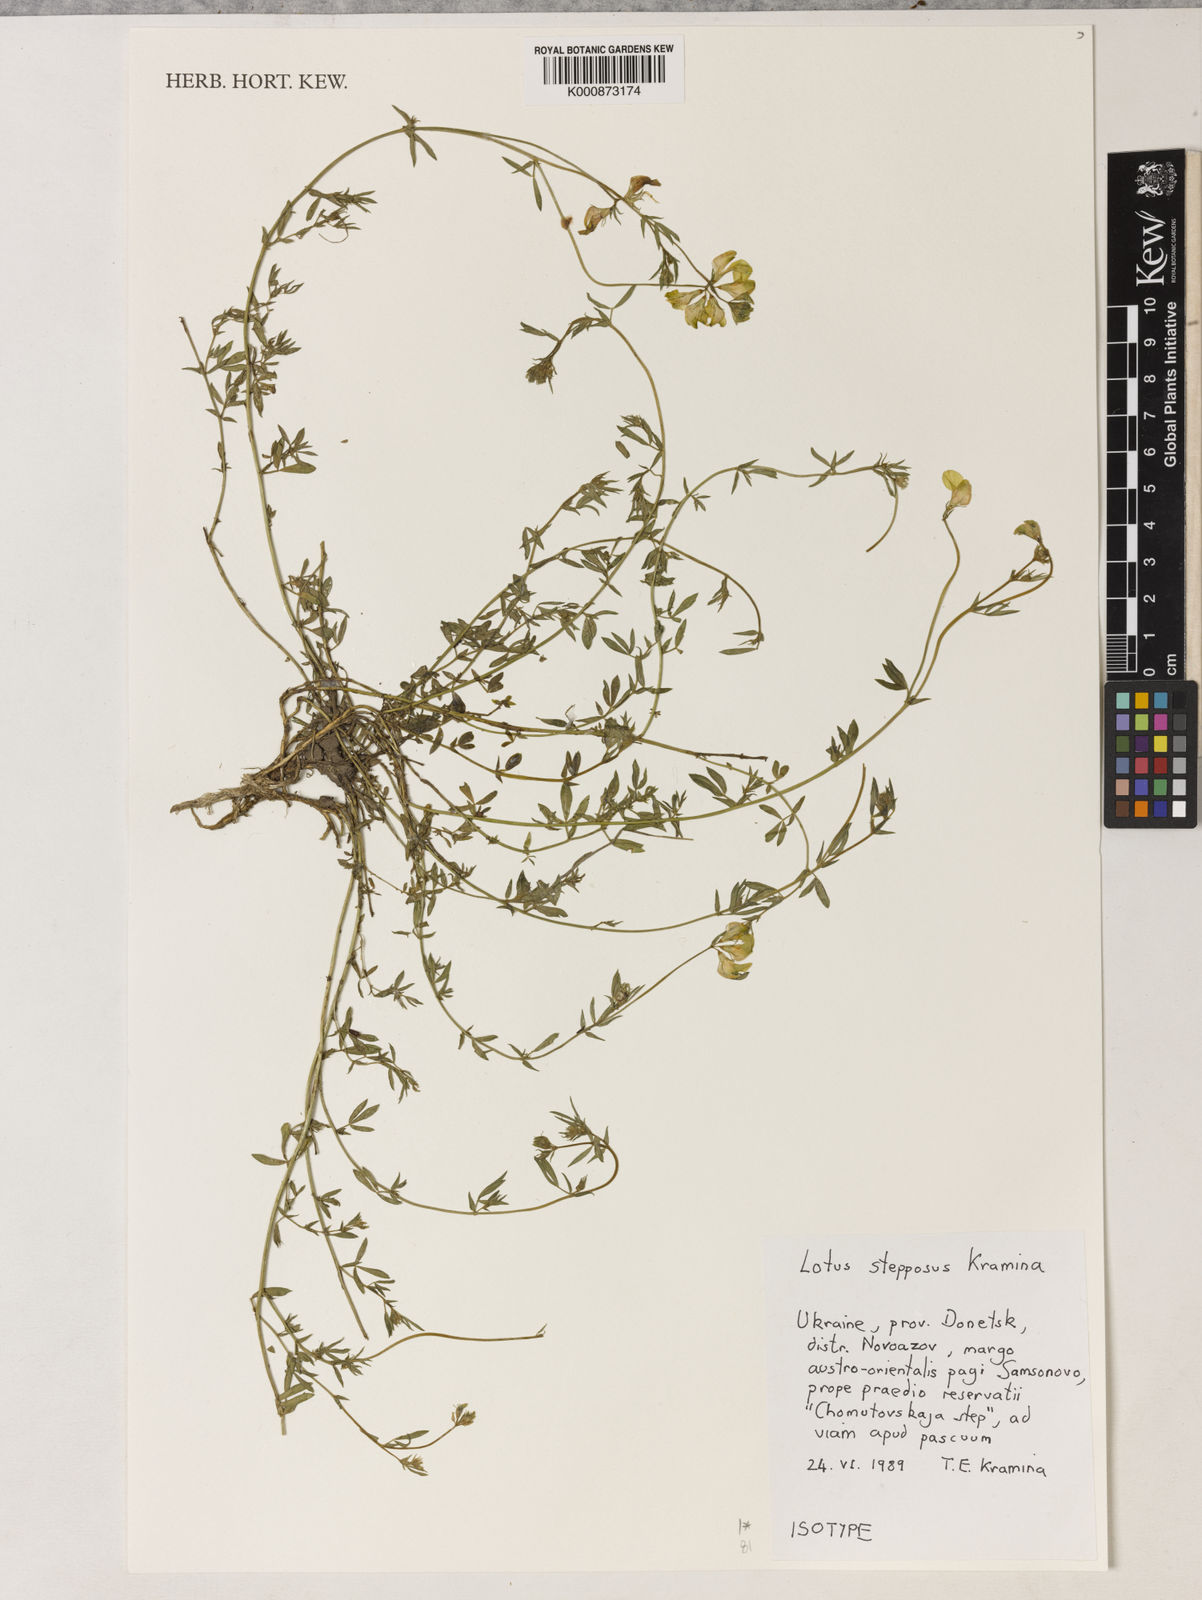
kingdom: Plantae
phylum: Tracheophyta
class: Magnoliopsida
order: Fabales
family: Fabaceae
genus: Lotus
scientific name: Lotus stepposus
